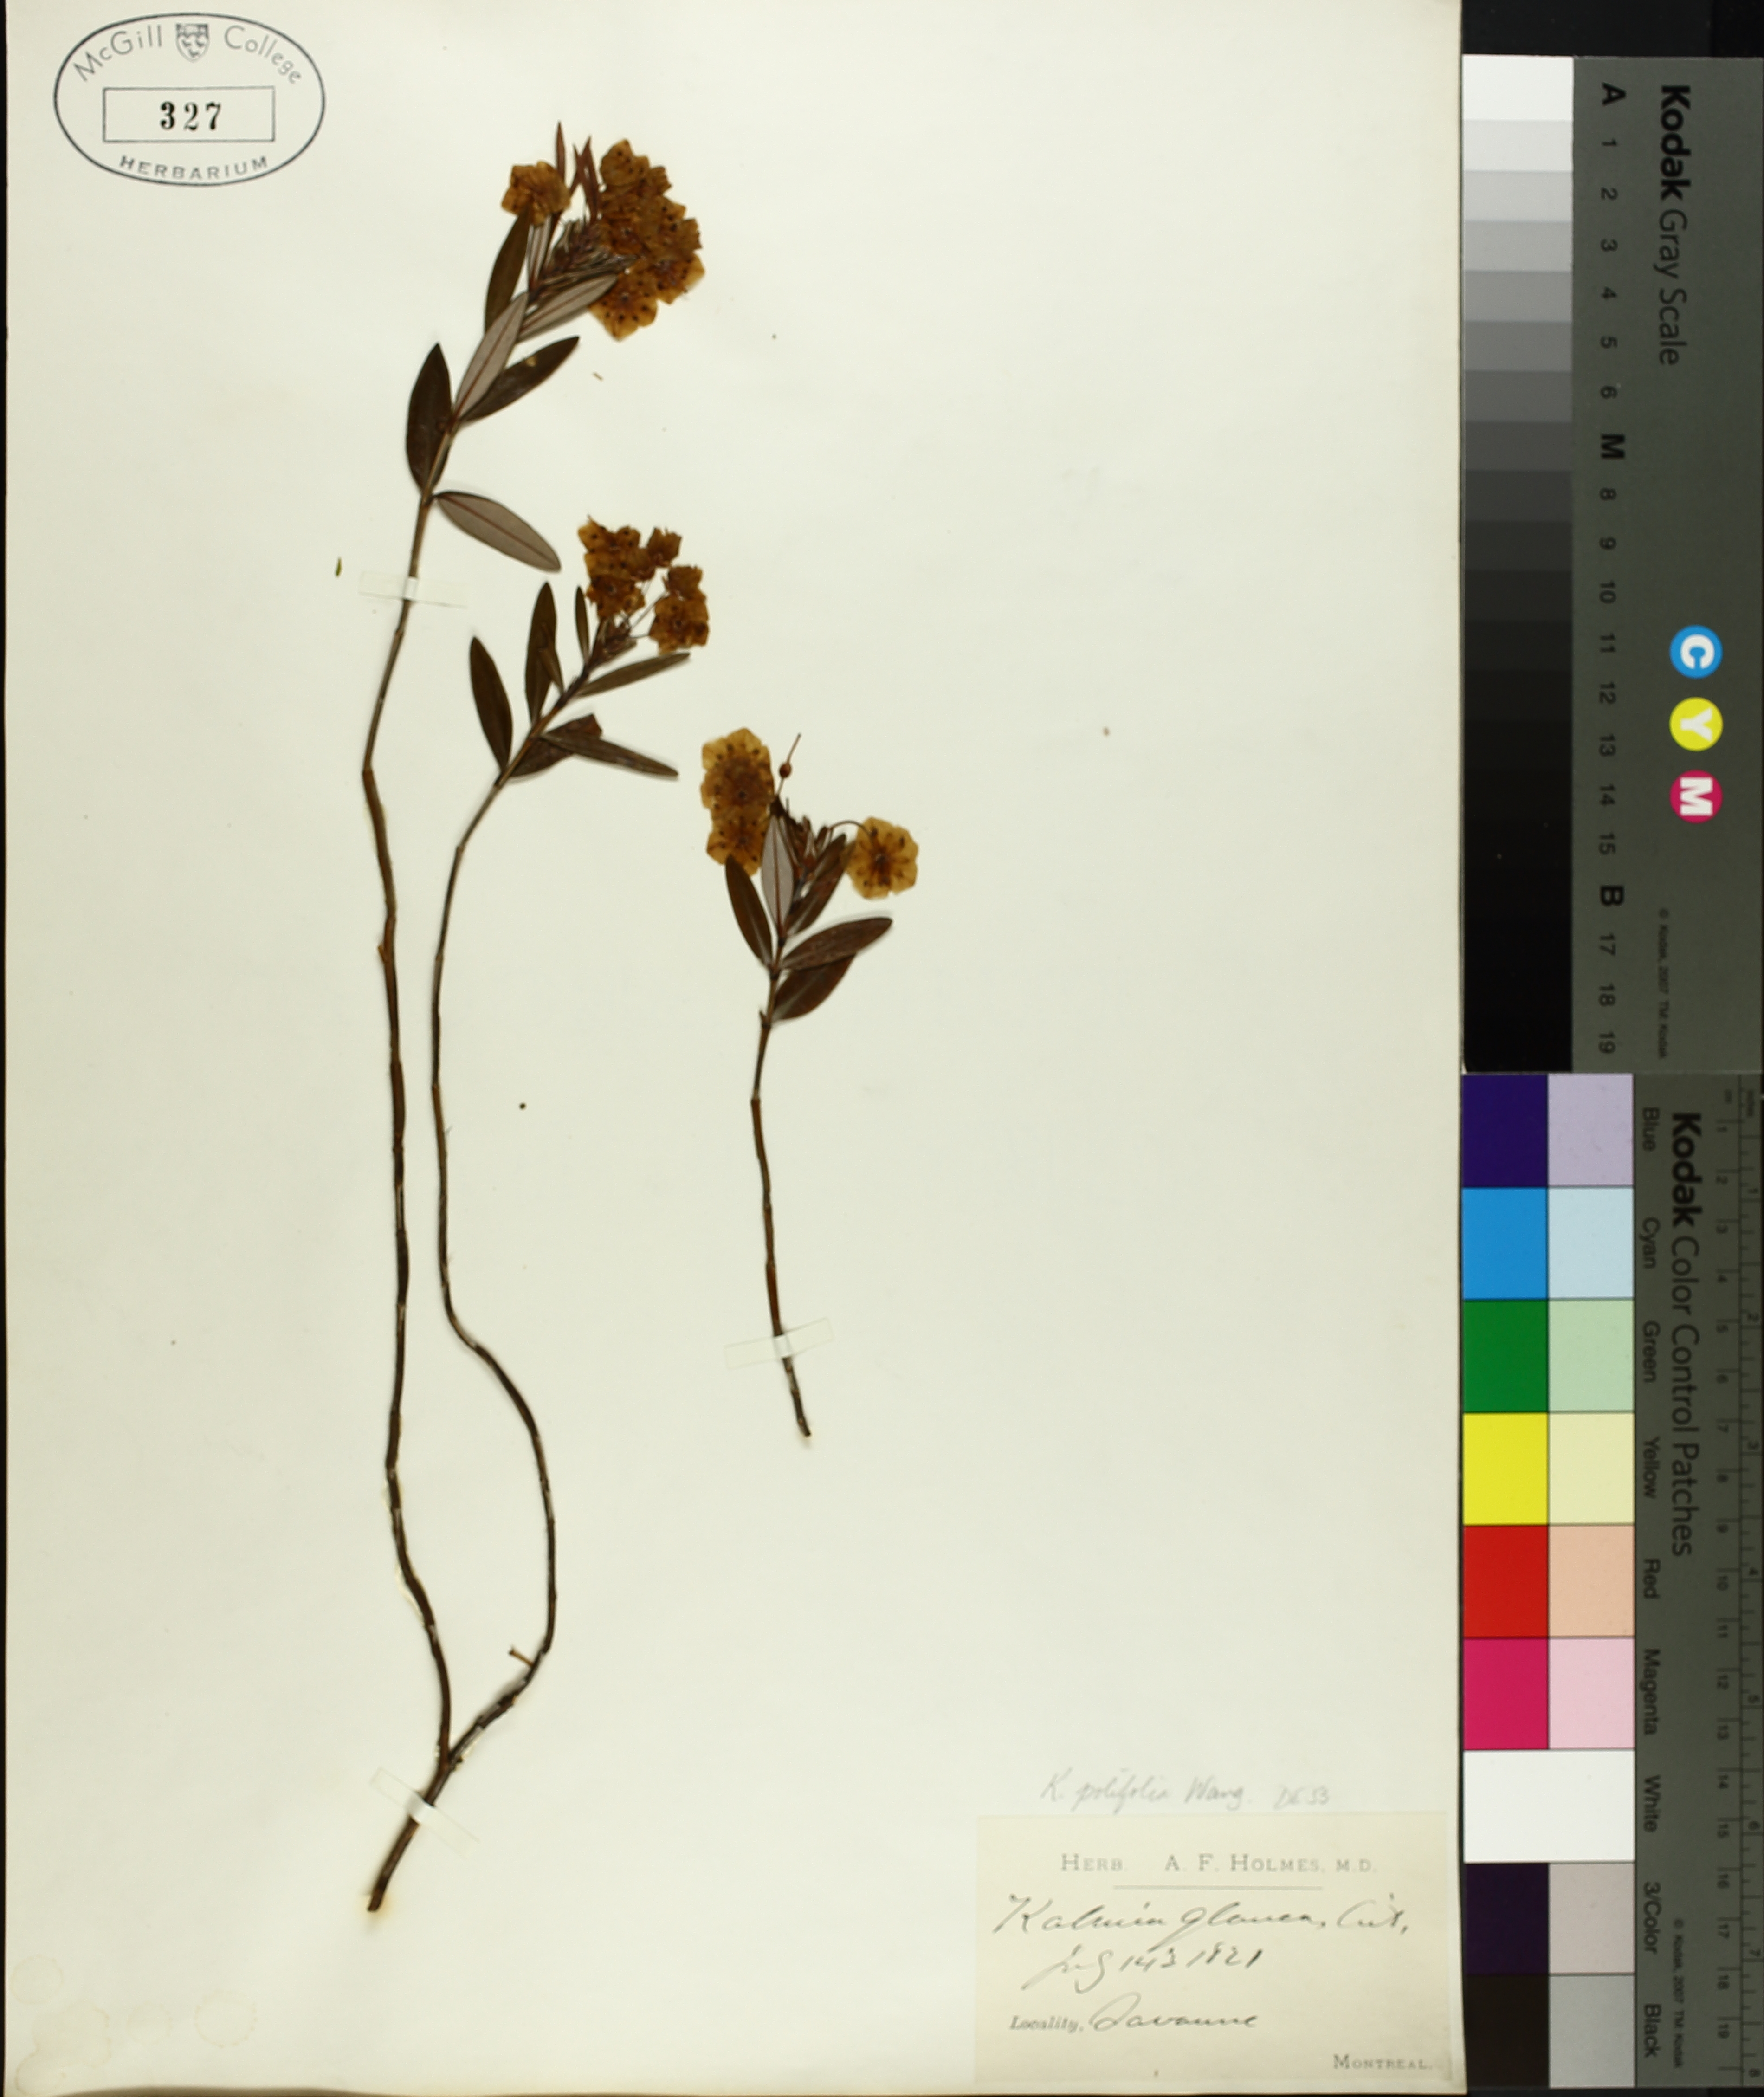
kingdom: Plantae
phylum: Tracheophyta
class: Magnoliopsida
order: Ericales
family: Ericaceae
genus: Kalmia
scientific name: Kalmia polifolia
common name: Bog-laurel
